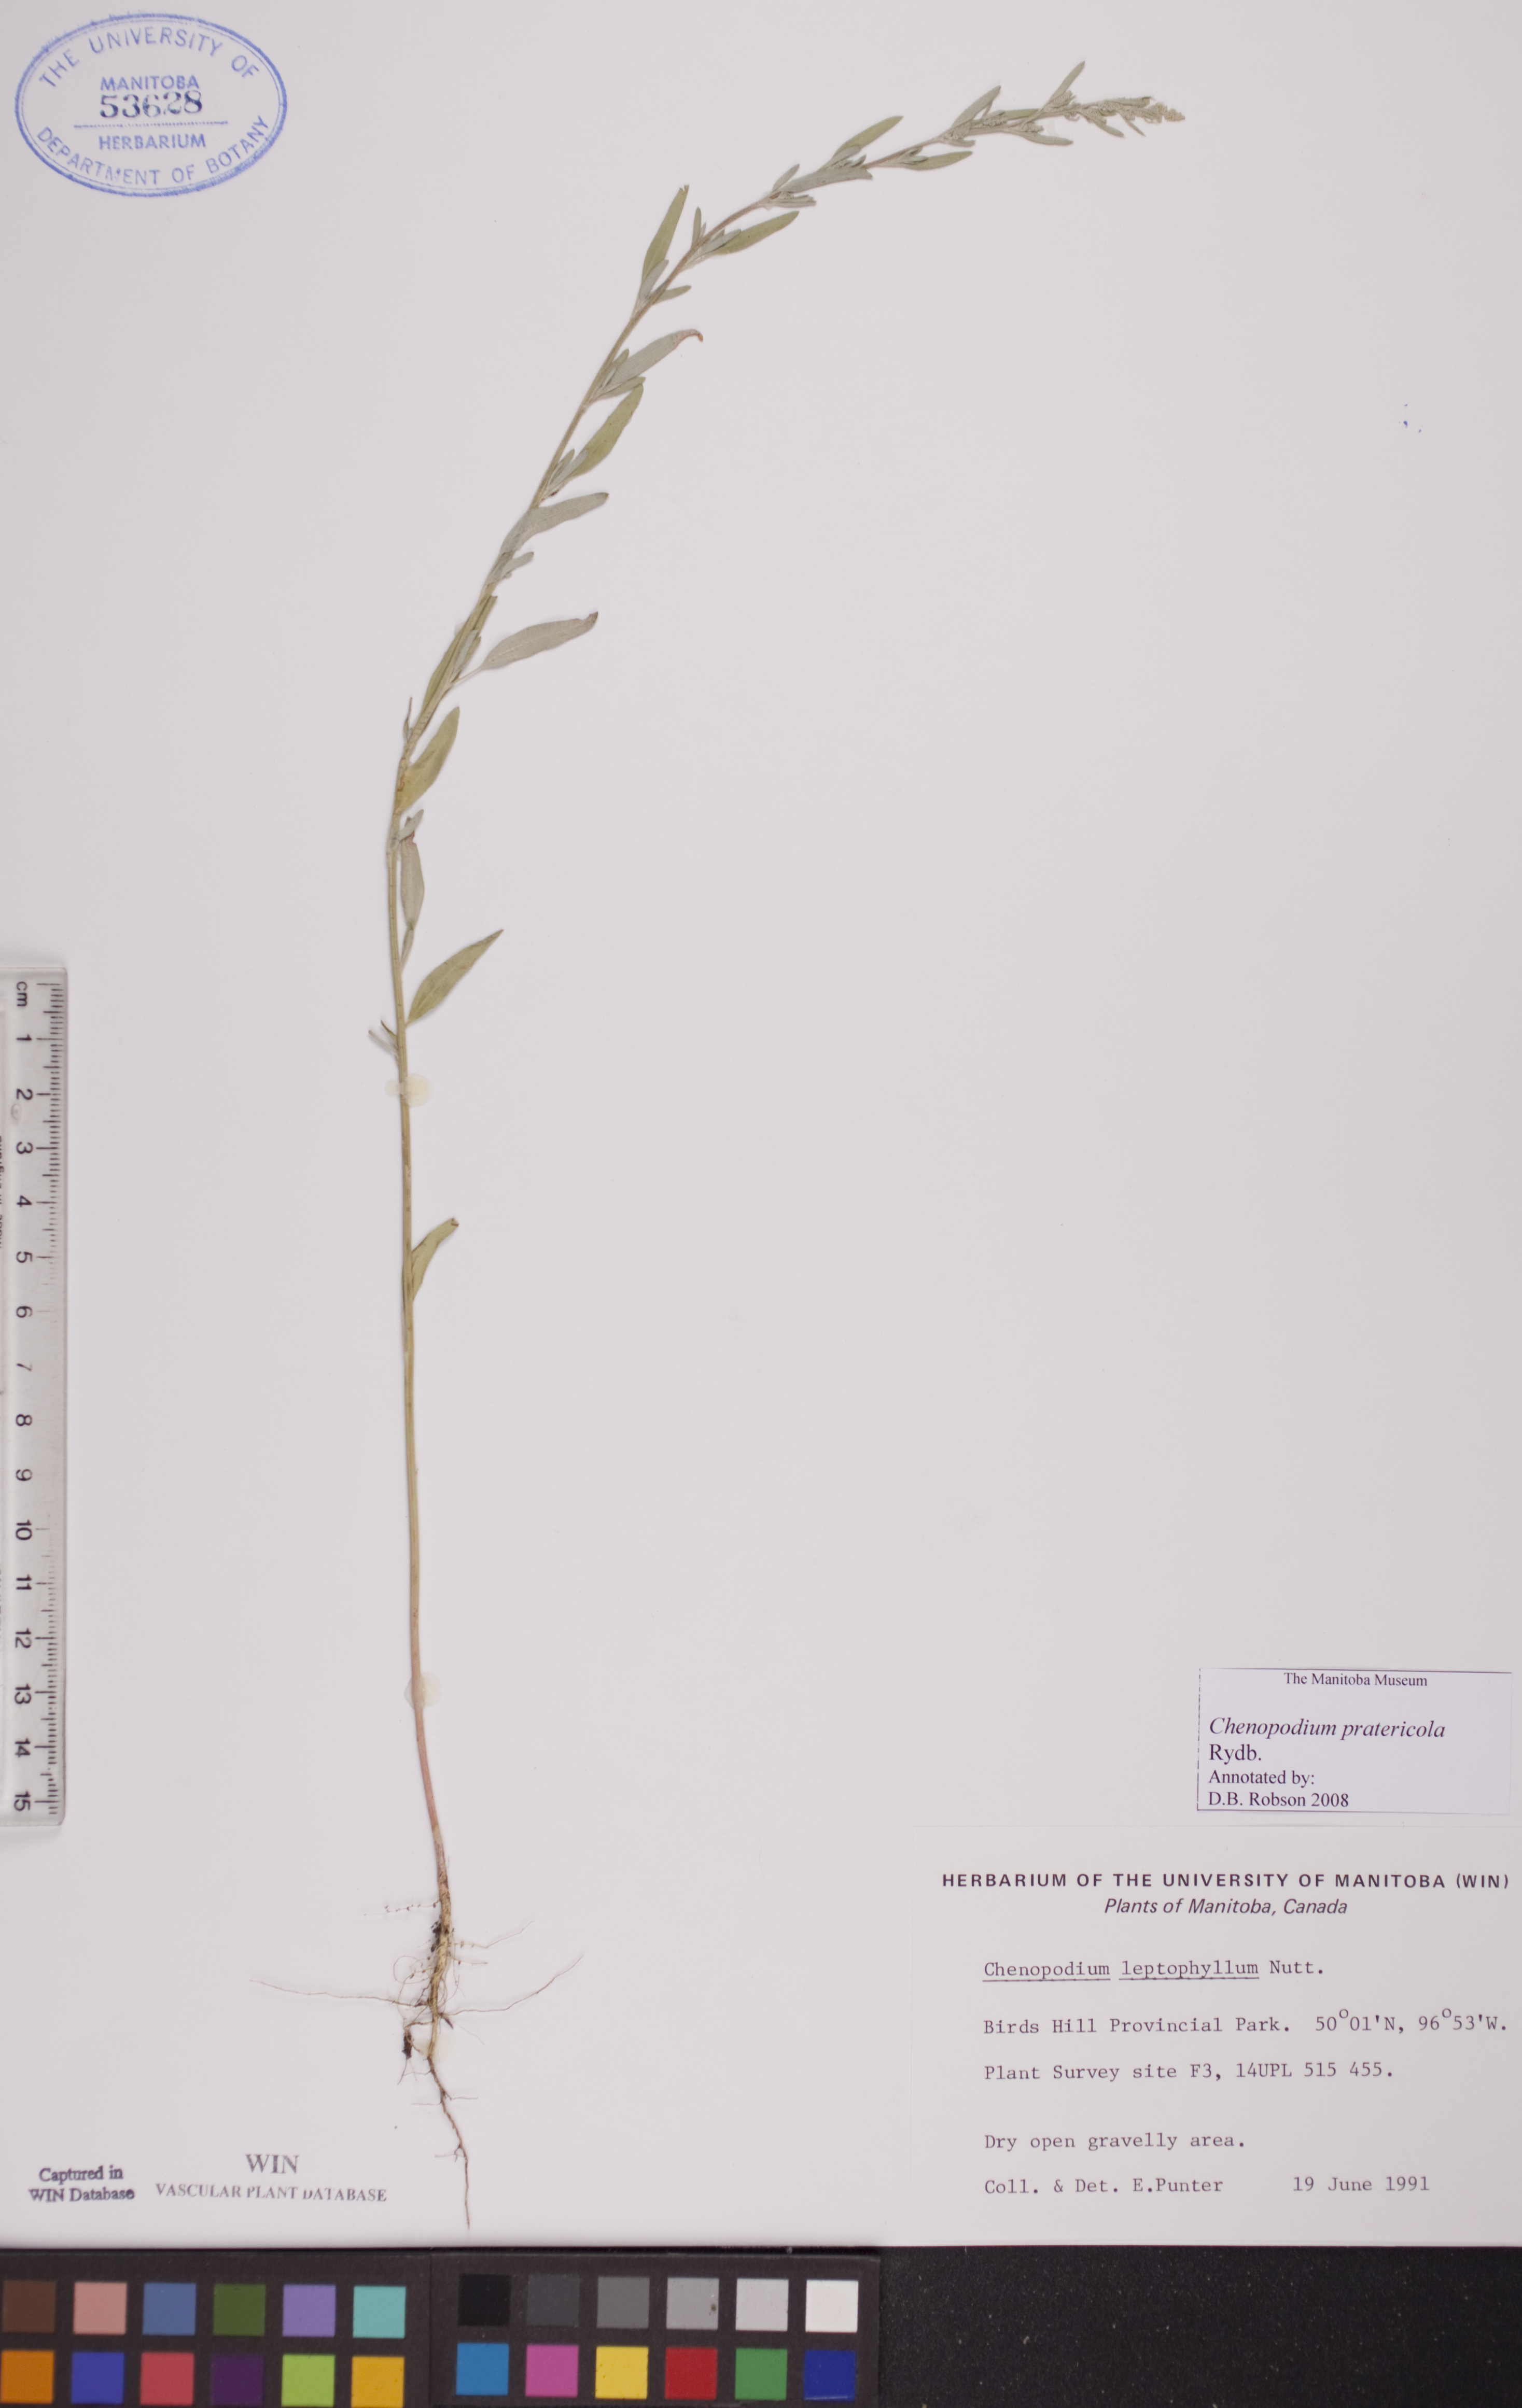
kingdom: Plantae
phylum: Tracheophyta
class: Magnoliopsida
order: Caryophyllales
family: Amaranthaceae
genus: Chenopodium
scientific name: Chenopodium pratericola
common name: Desert goosefoot
